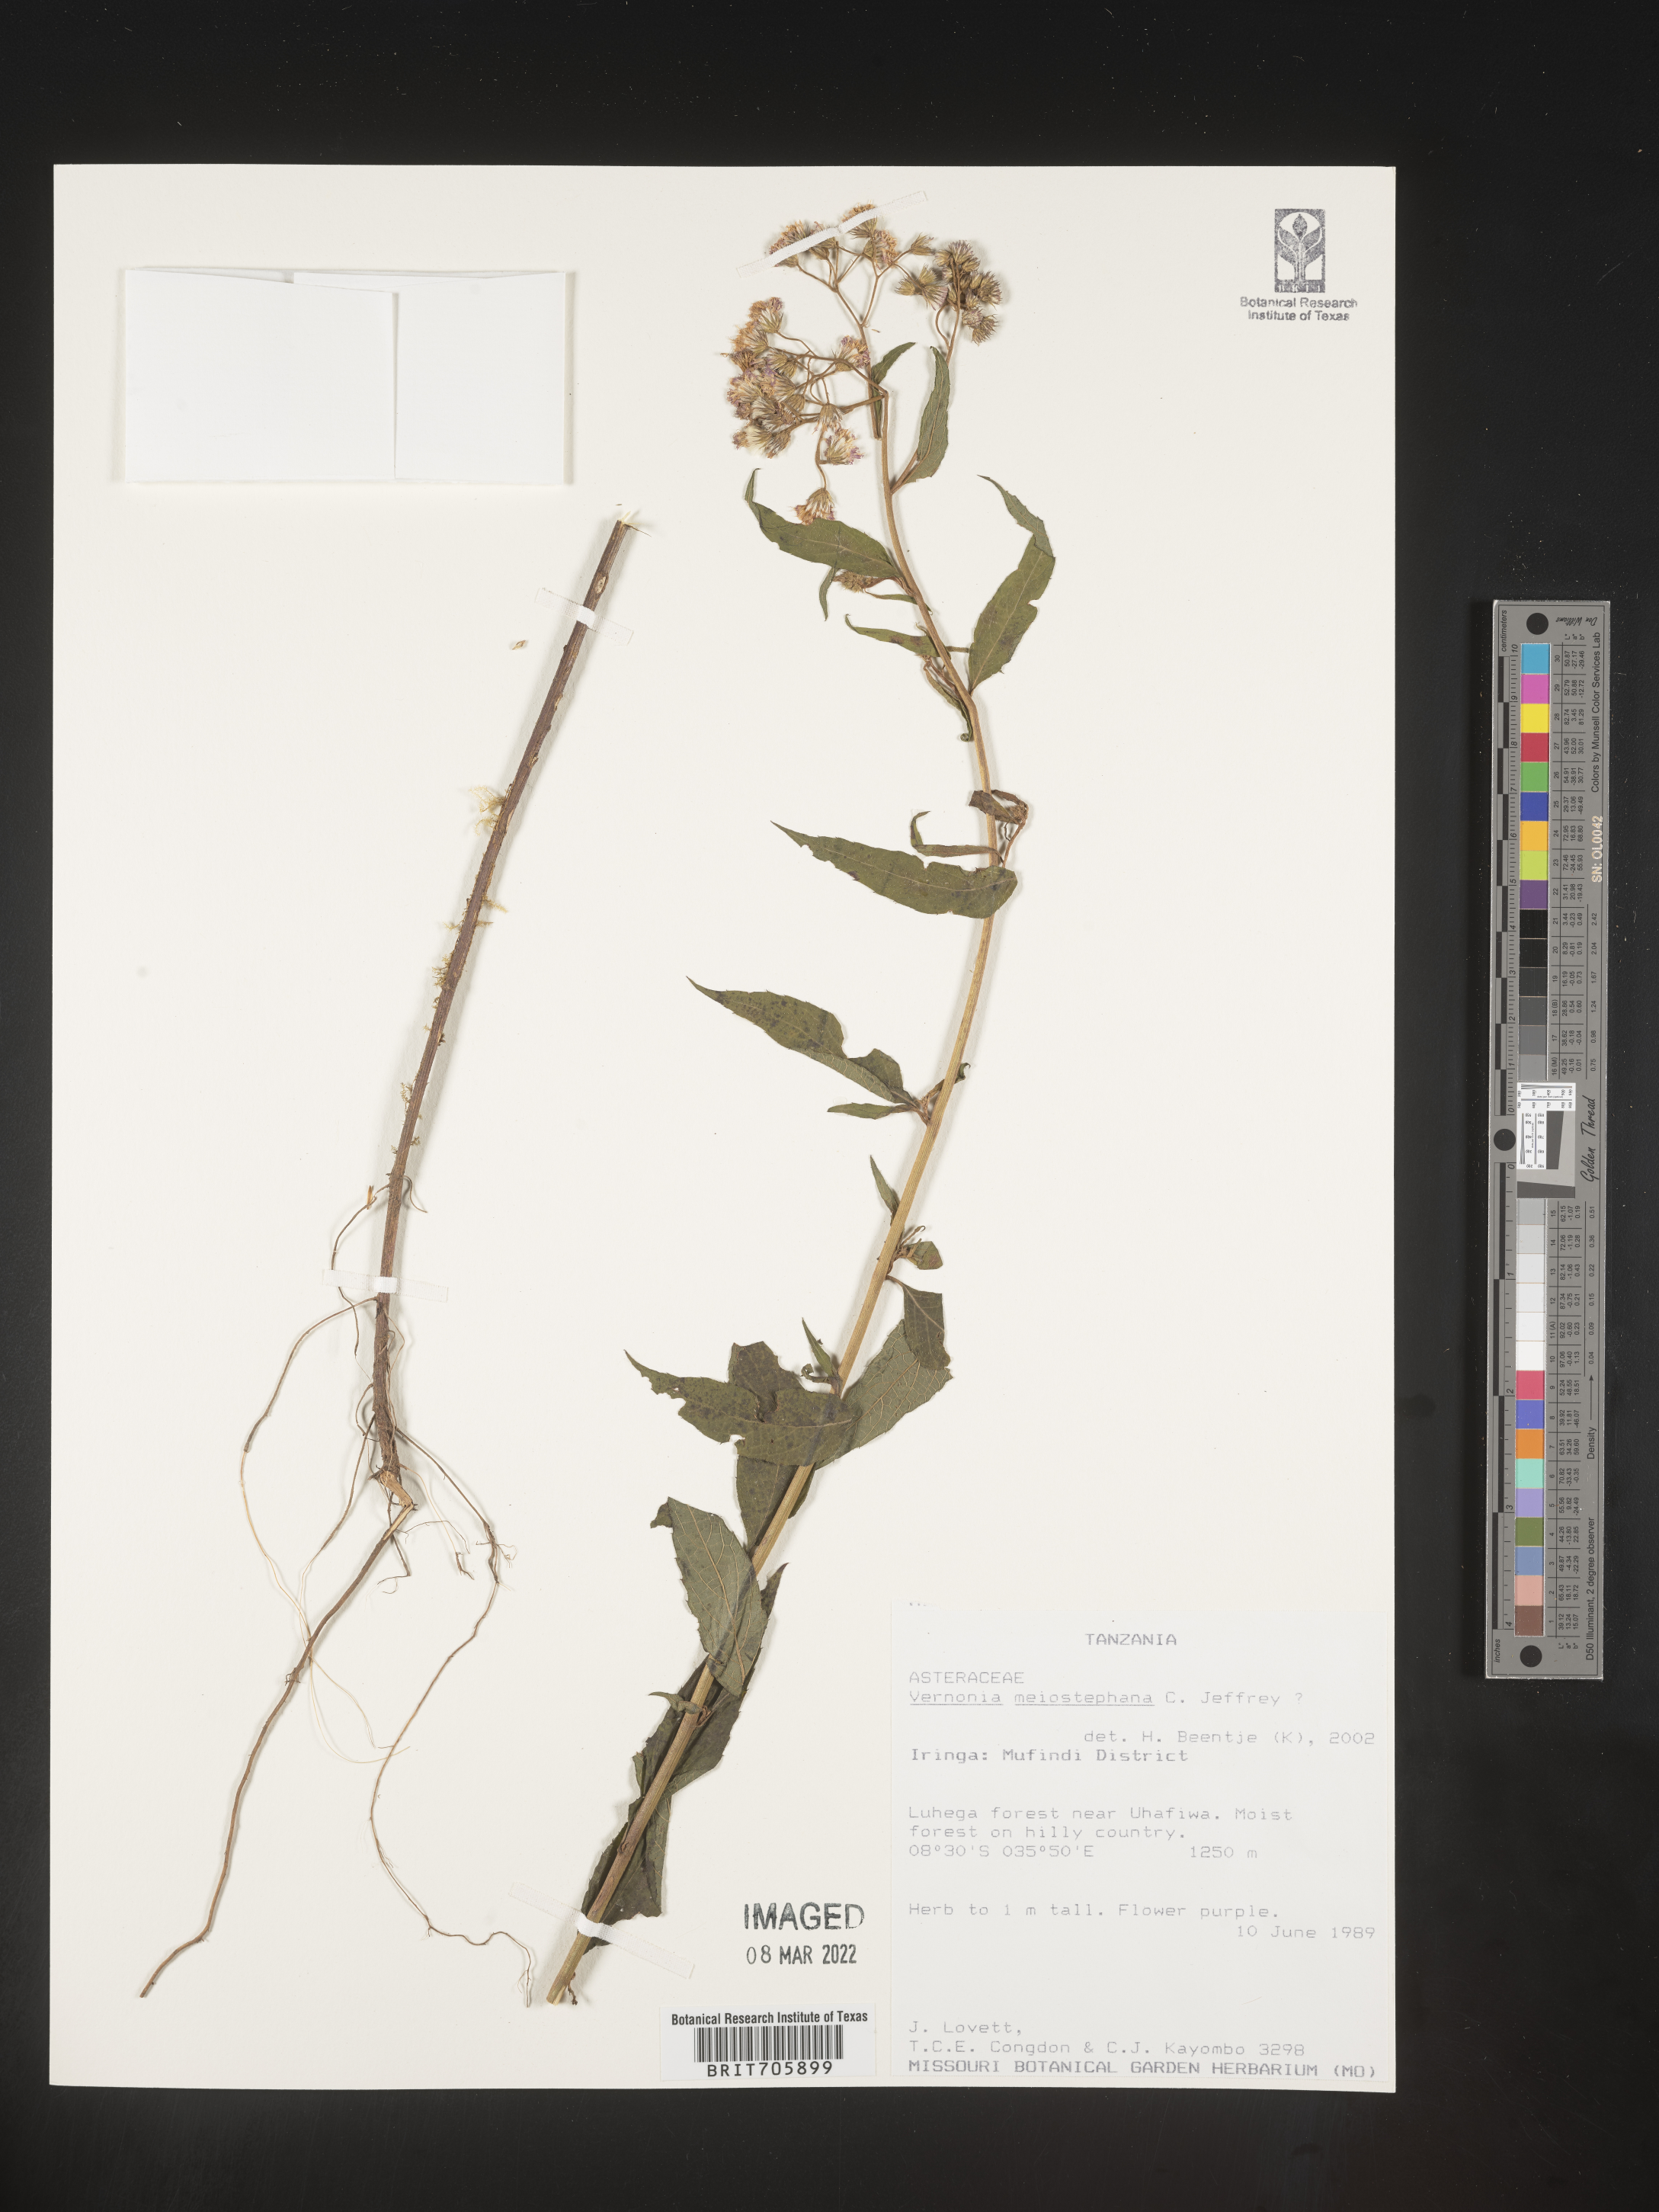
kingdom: Plantae
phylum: Tracheophyta
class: Magnoliopsida
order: Asterales
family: Asteraceae
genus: Vernonia
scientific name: Vernonia
